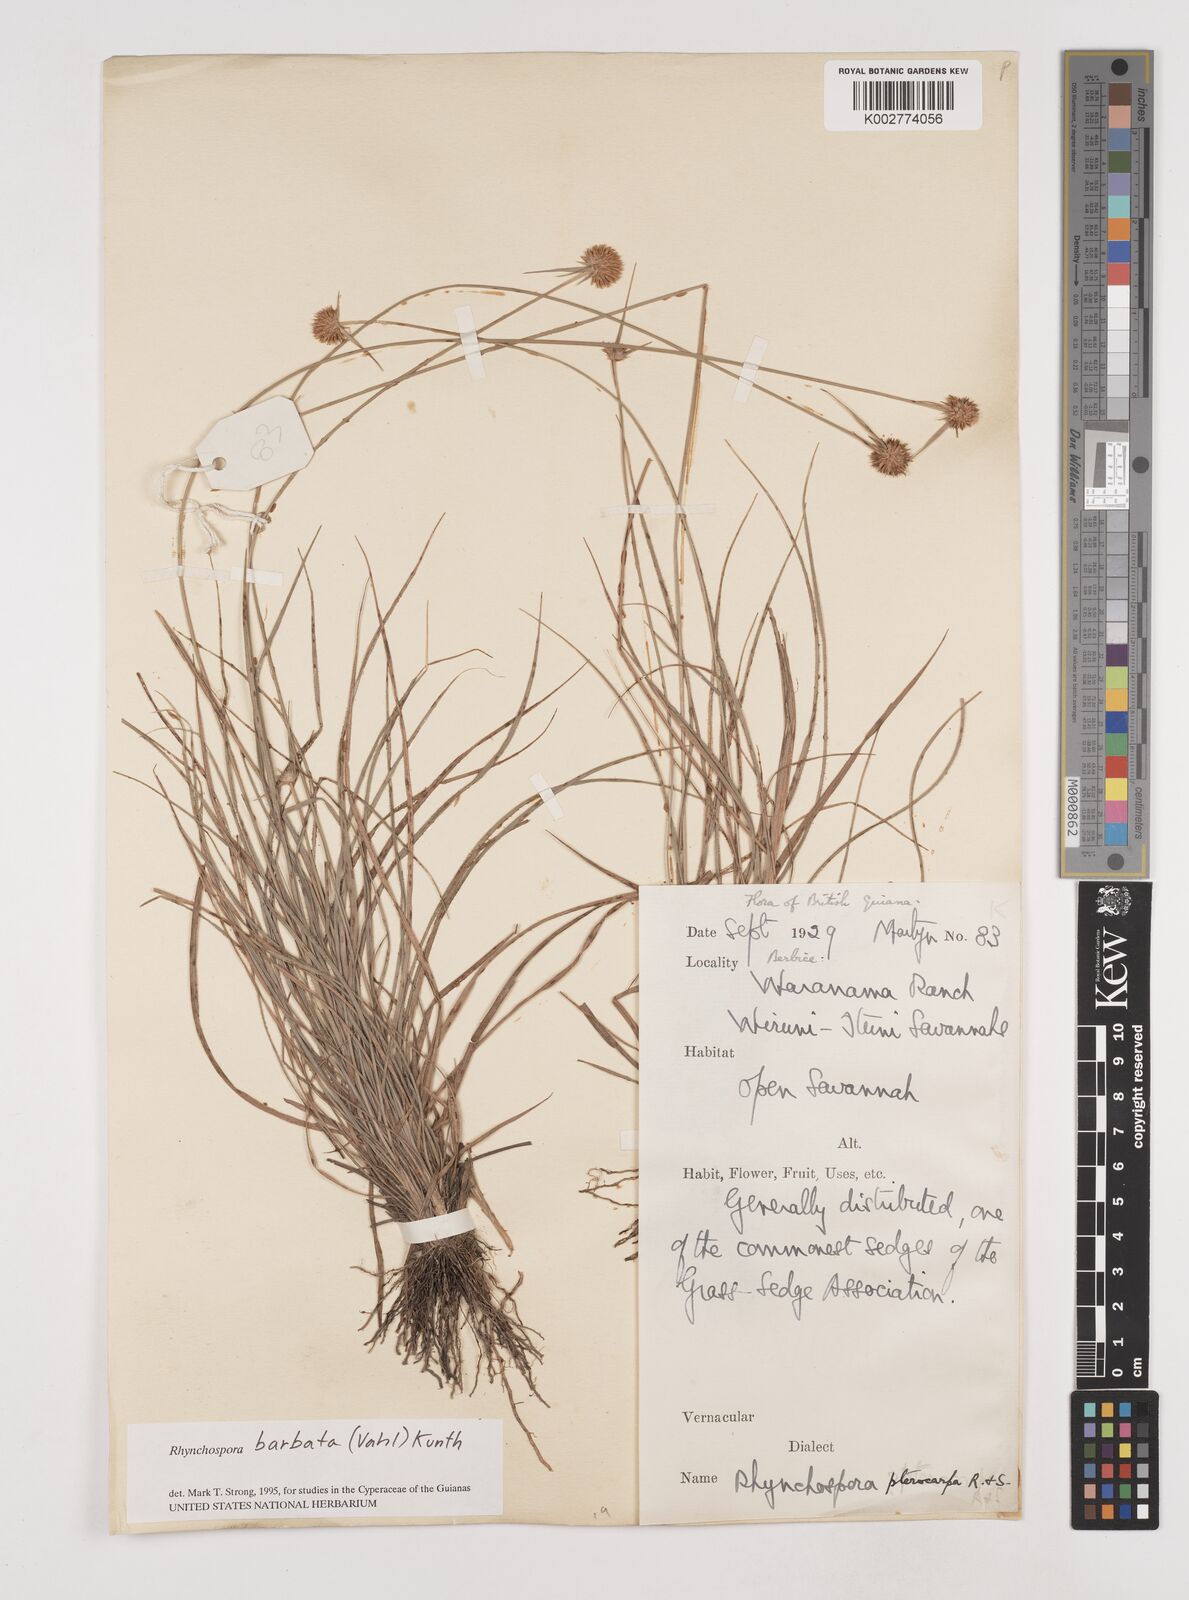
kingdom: Plantae
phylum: Tracheophyta
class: Liliopsida
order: Poales
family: Cyperaceae
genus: Rhynchospora
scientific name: Rhynchospora barbata
